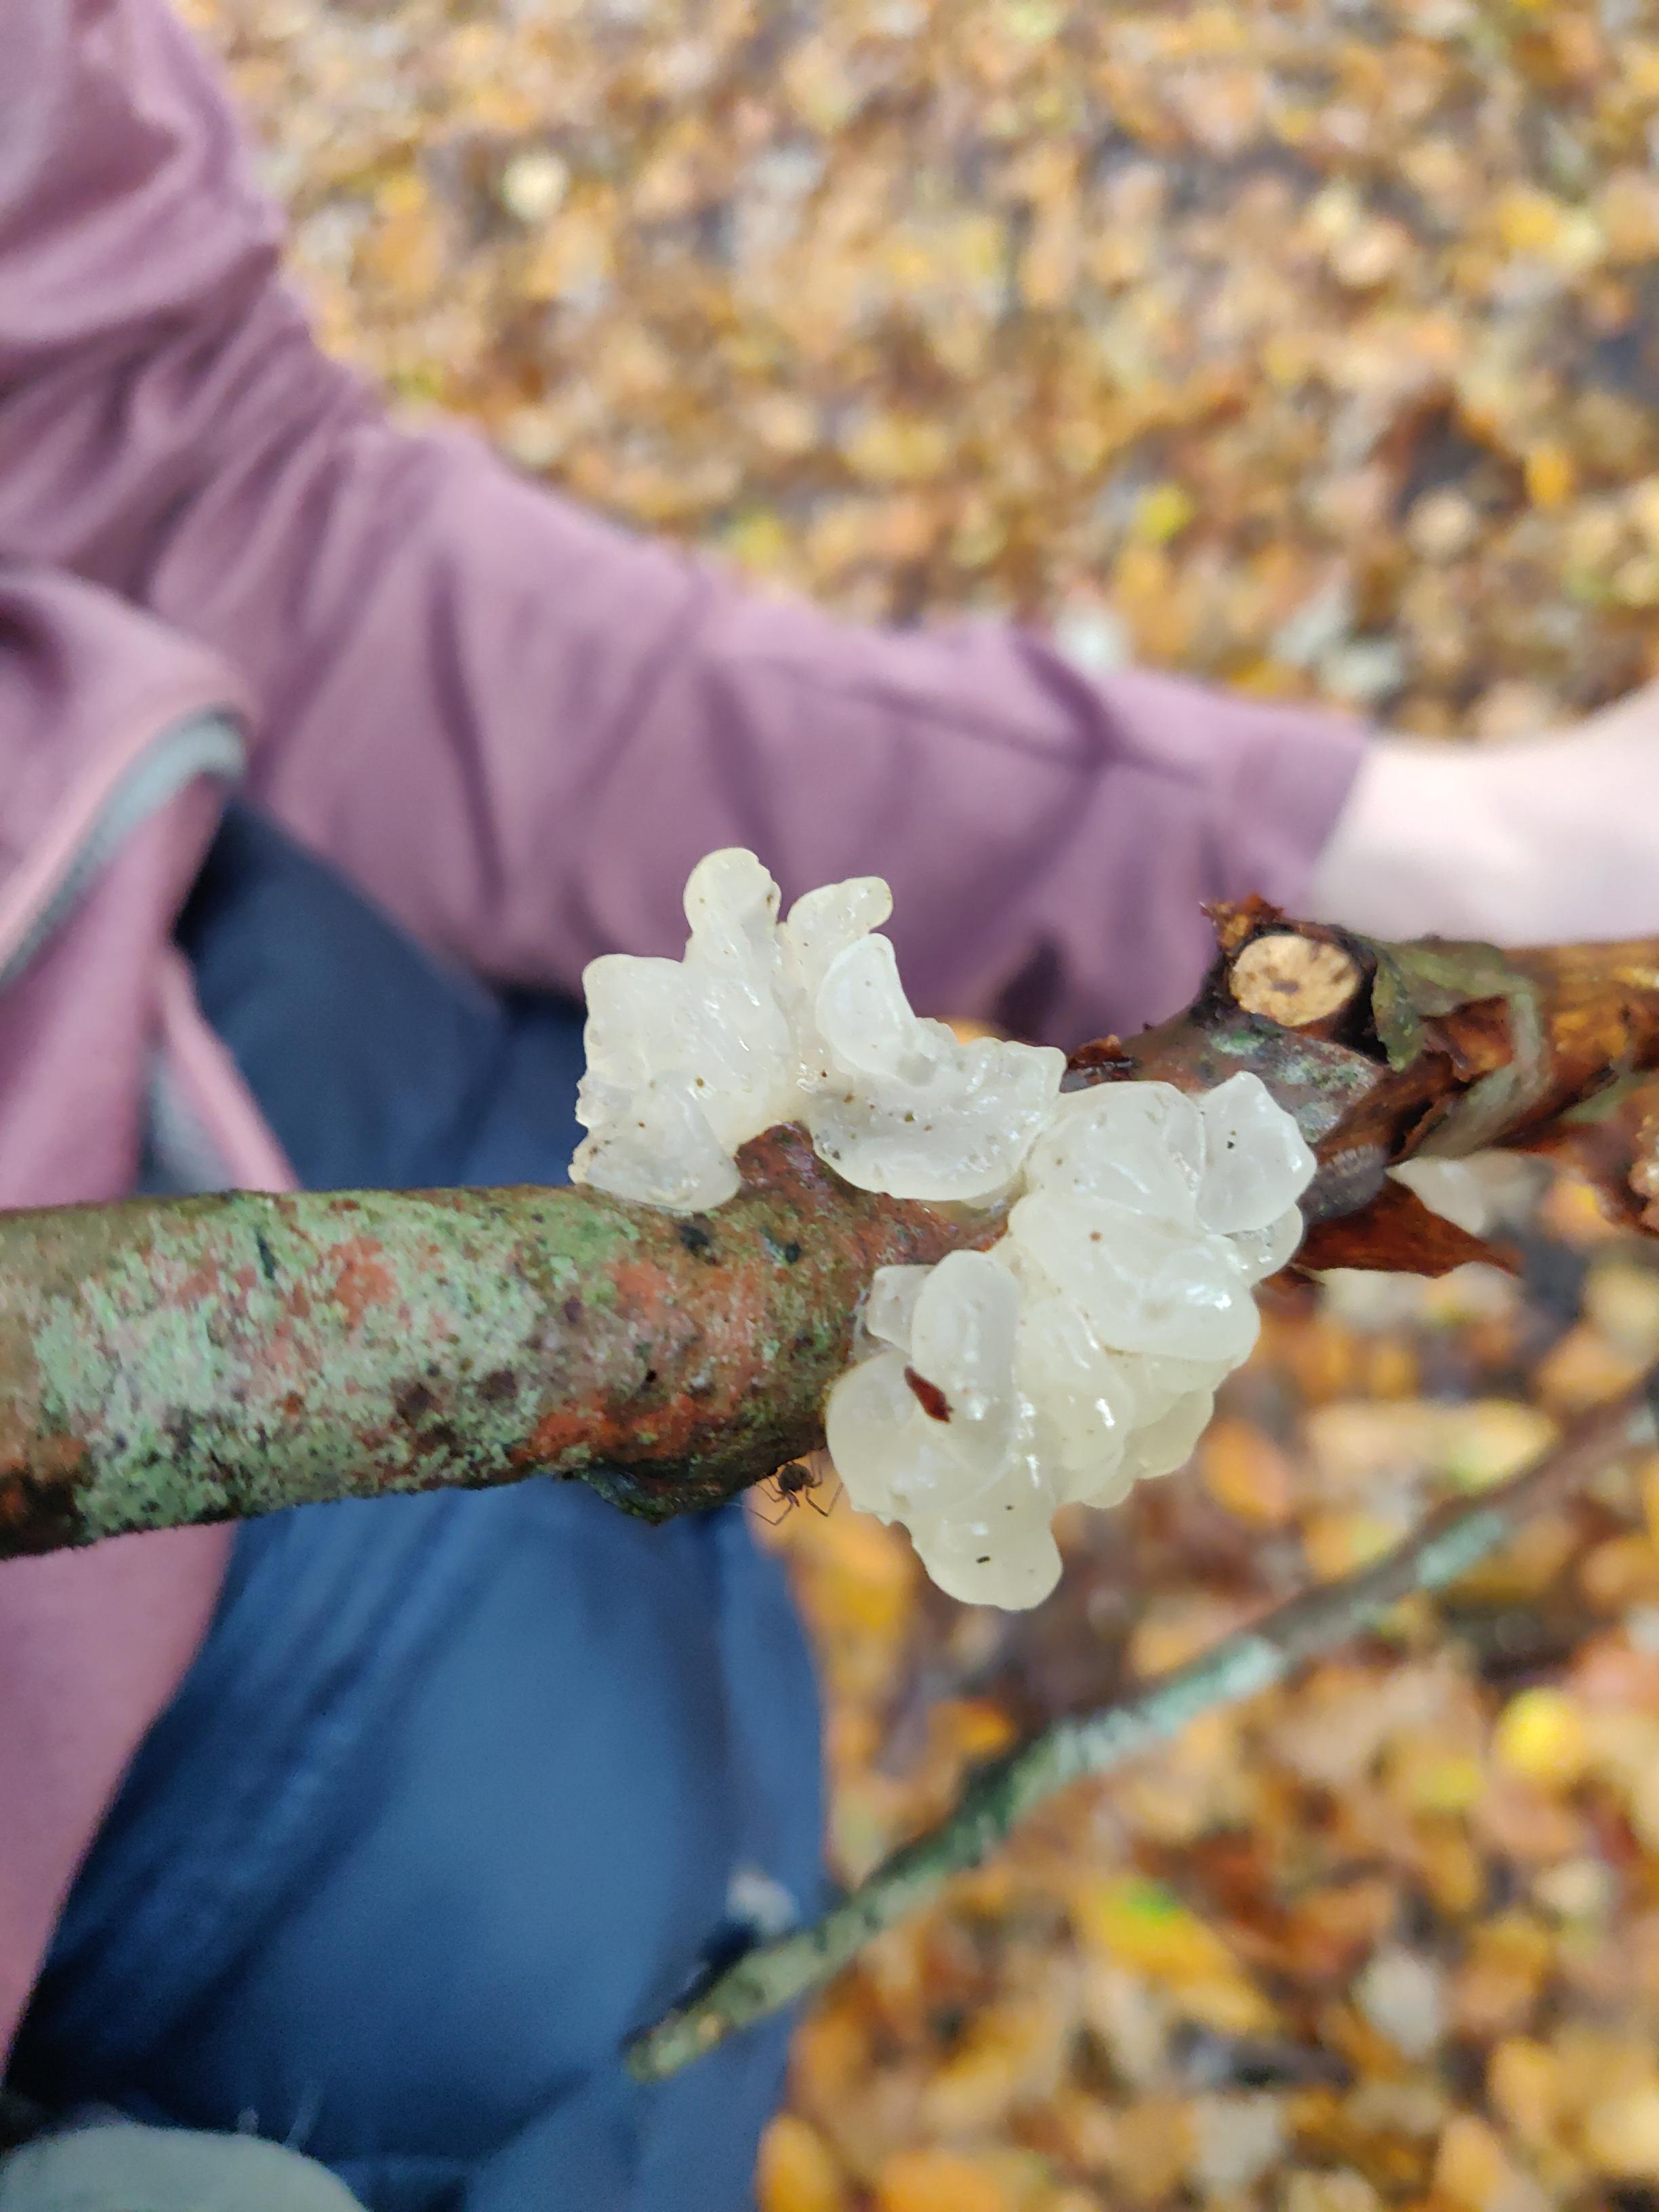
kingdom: Fungi
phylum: Basidiomycota
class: Tremellomycetes
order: Tremellales
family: Tremellaceae
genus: Tremella
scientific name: Tremella
